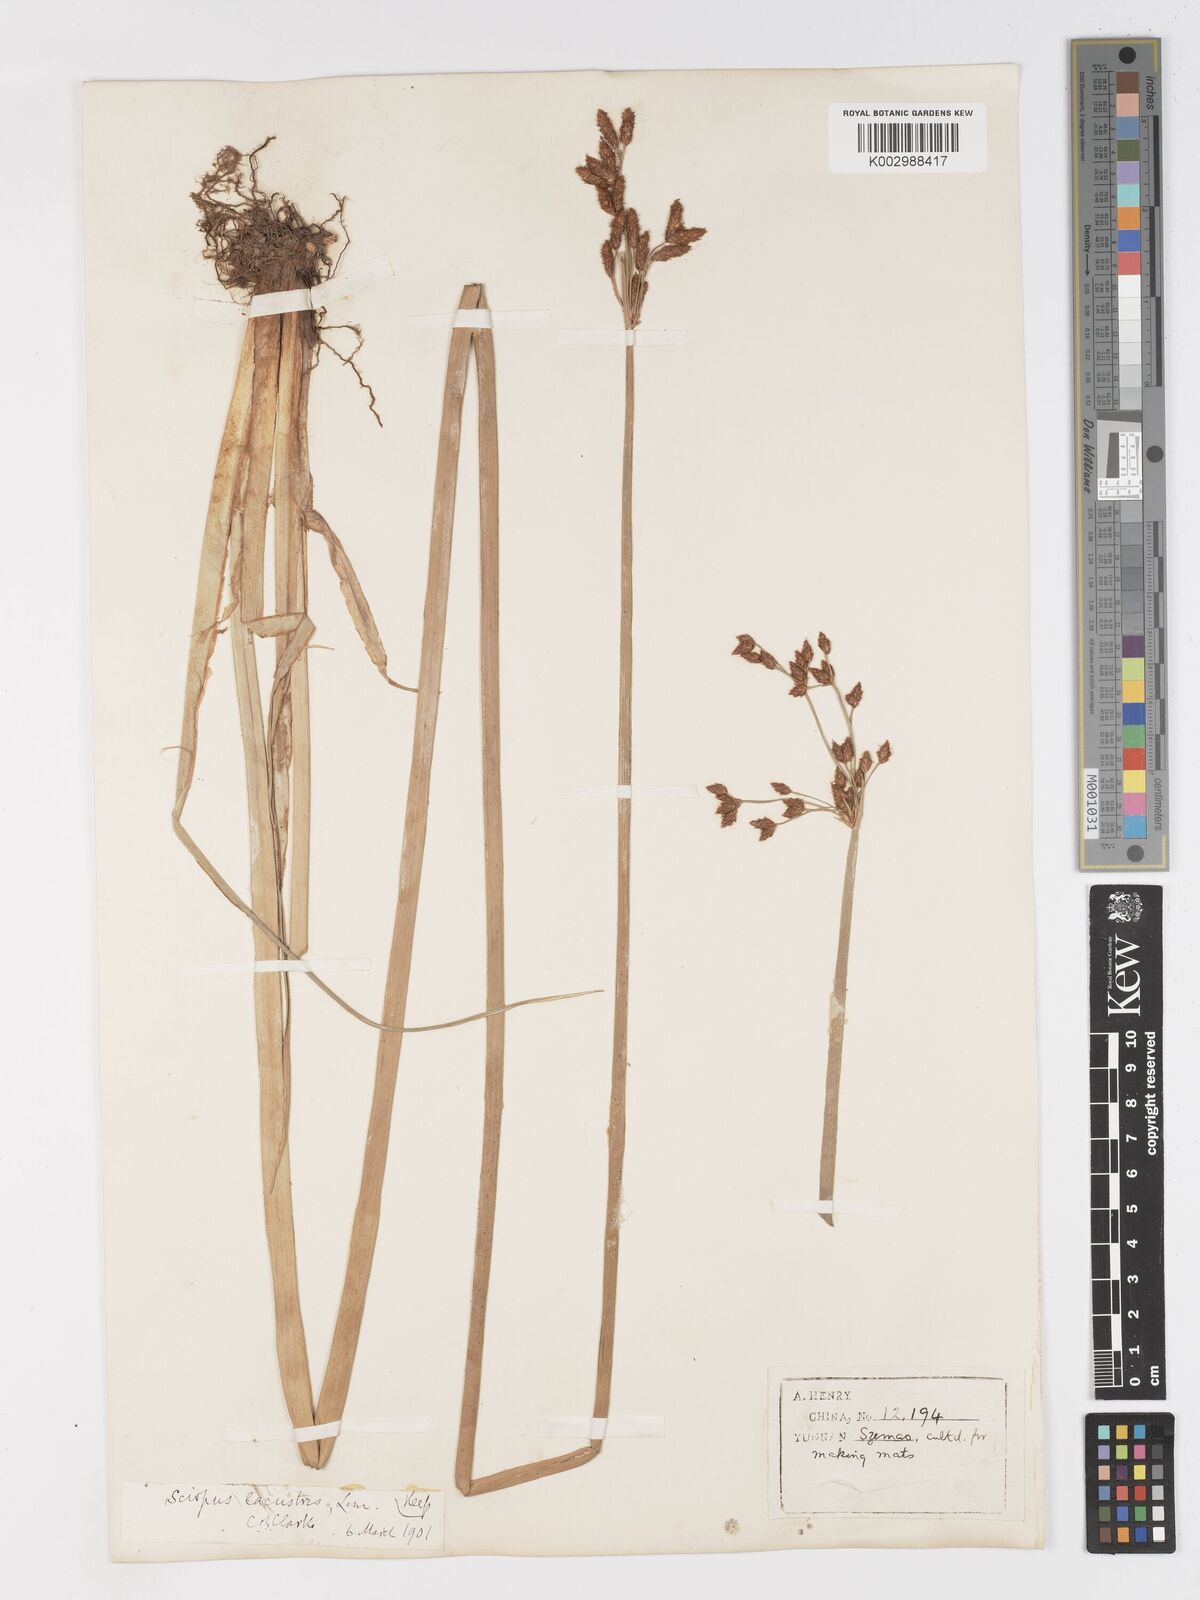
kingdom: Plantae
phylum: Tracheophyta
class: Liliopsida
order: Poales
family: Cyperaceae
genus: Schoenoplectus
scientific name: Schoenoplectus lacustris
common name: Common club-rush
